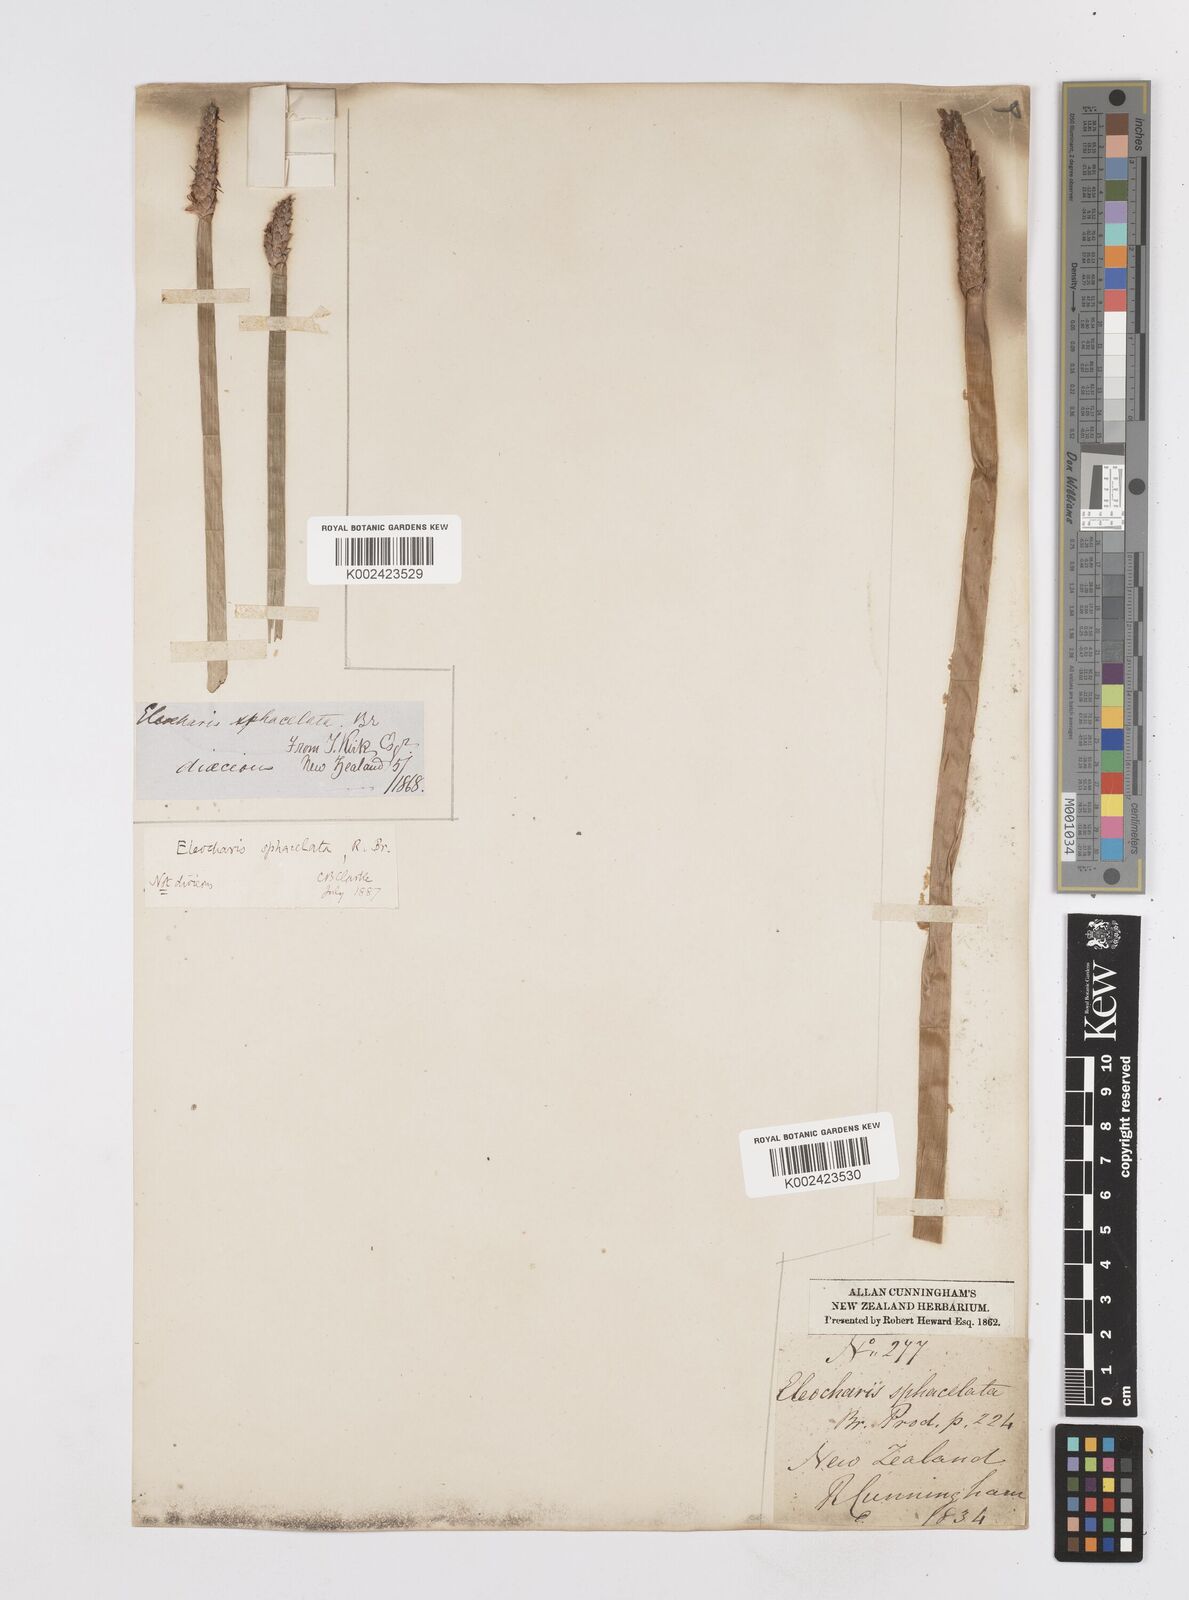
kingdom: Plantae
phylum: Tracheophyta
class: Liliopsida
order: Poales
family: Cyperaceae
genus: Eleocharis
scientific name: Eleocharis sphacelata
